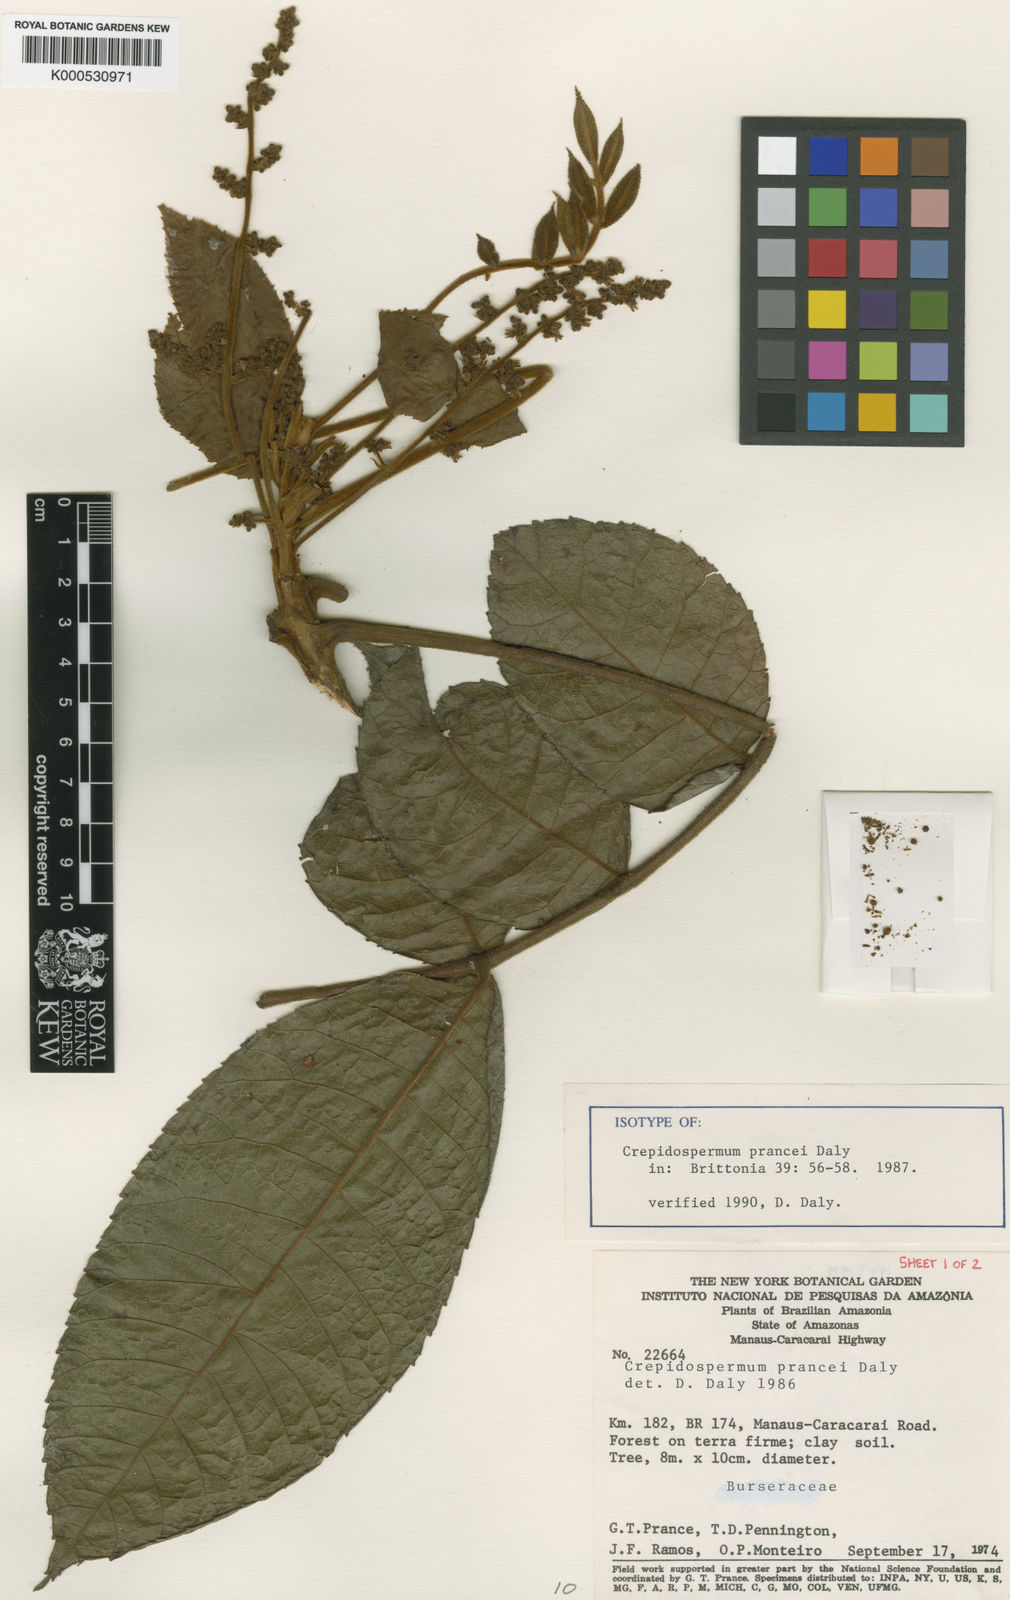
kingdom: Plantae
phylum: Tracheophyta
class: Magnoliopsida
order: Sapindales
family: Burseraceae
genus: Crepidospermum
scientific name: Crepidospermum prancei
